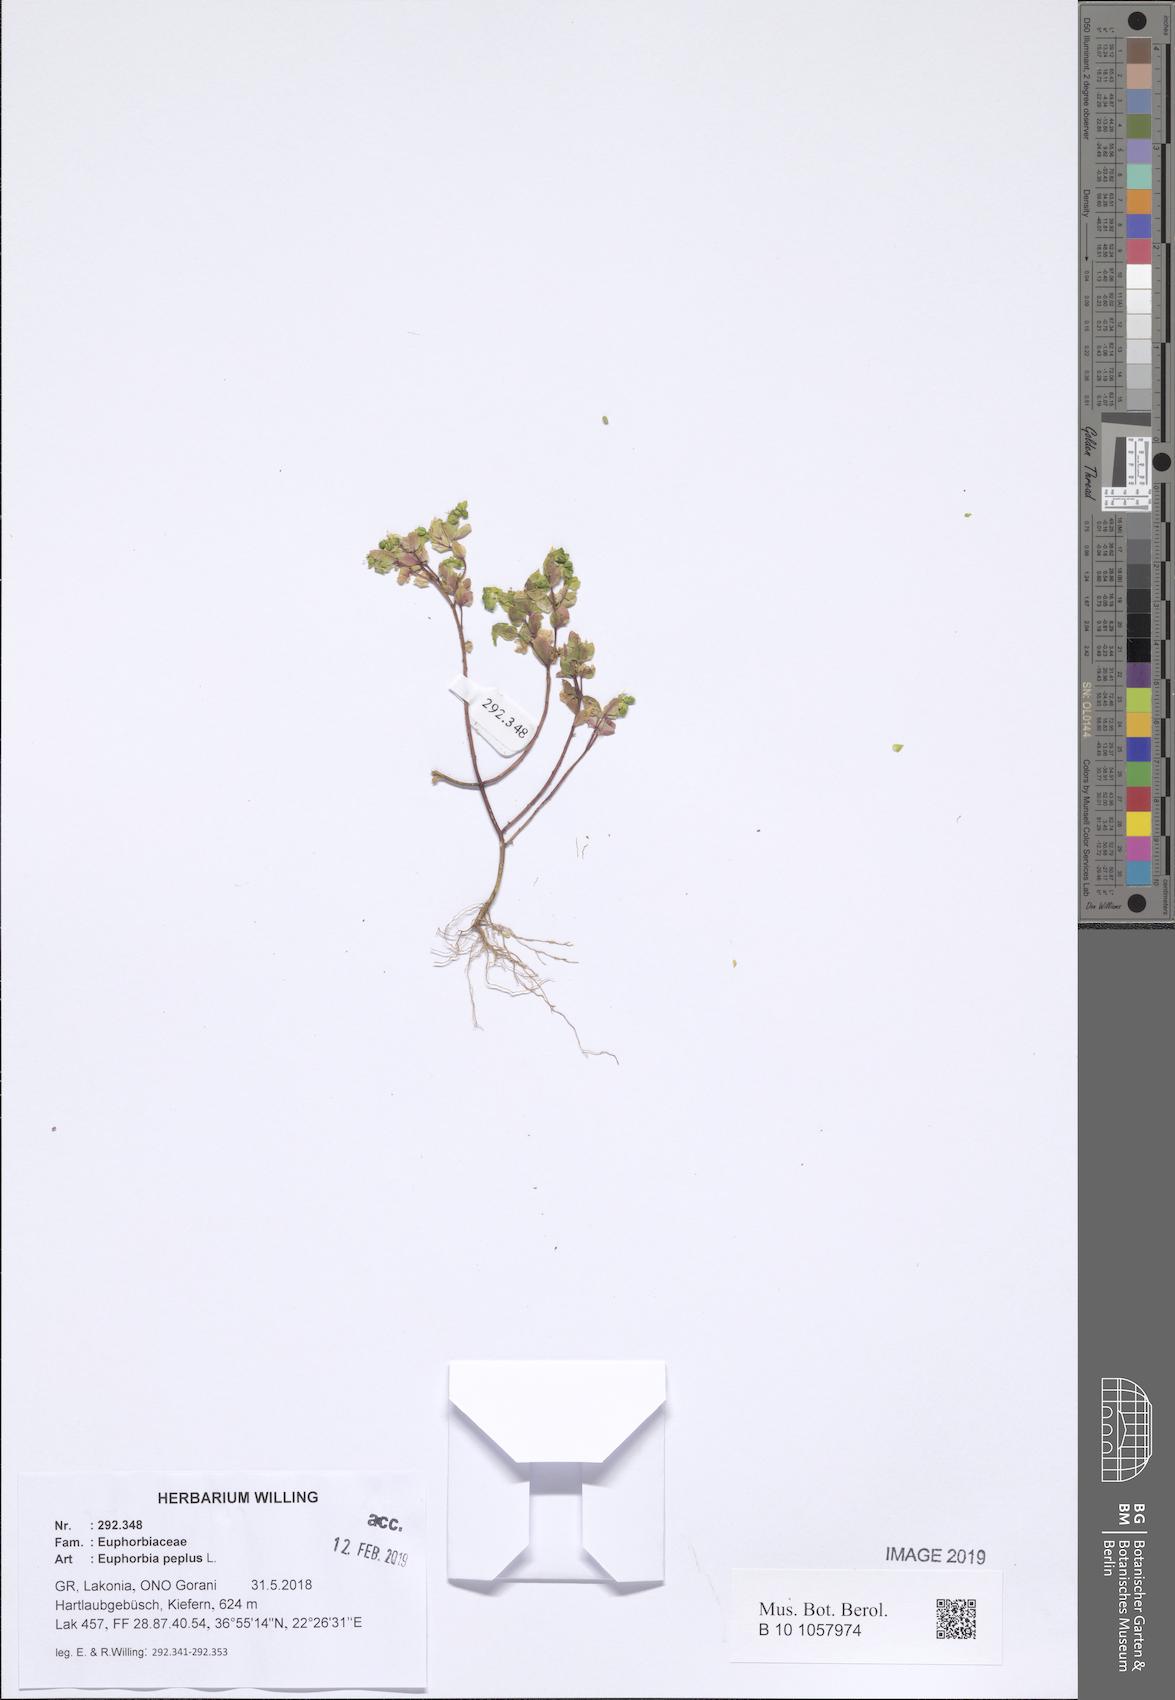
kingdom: Plantae
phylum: Tracheophyta
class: Magnoliopsida
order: Malpighiales
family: Euphorbiaceae
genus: Euphorbia
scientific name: Euphorbia peplus
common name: Petty spurge
